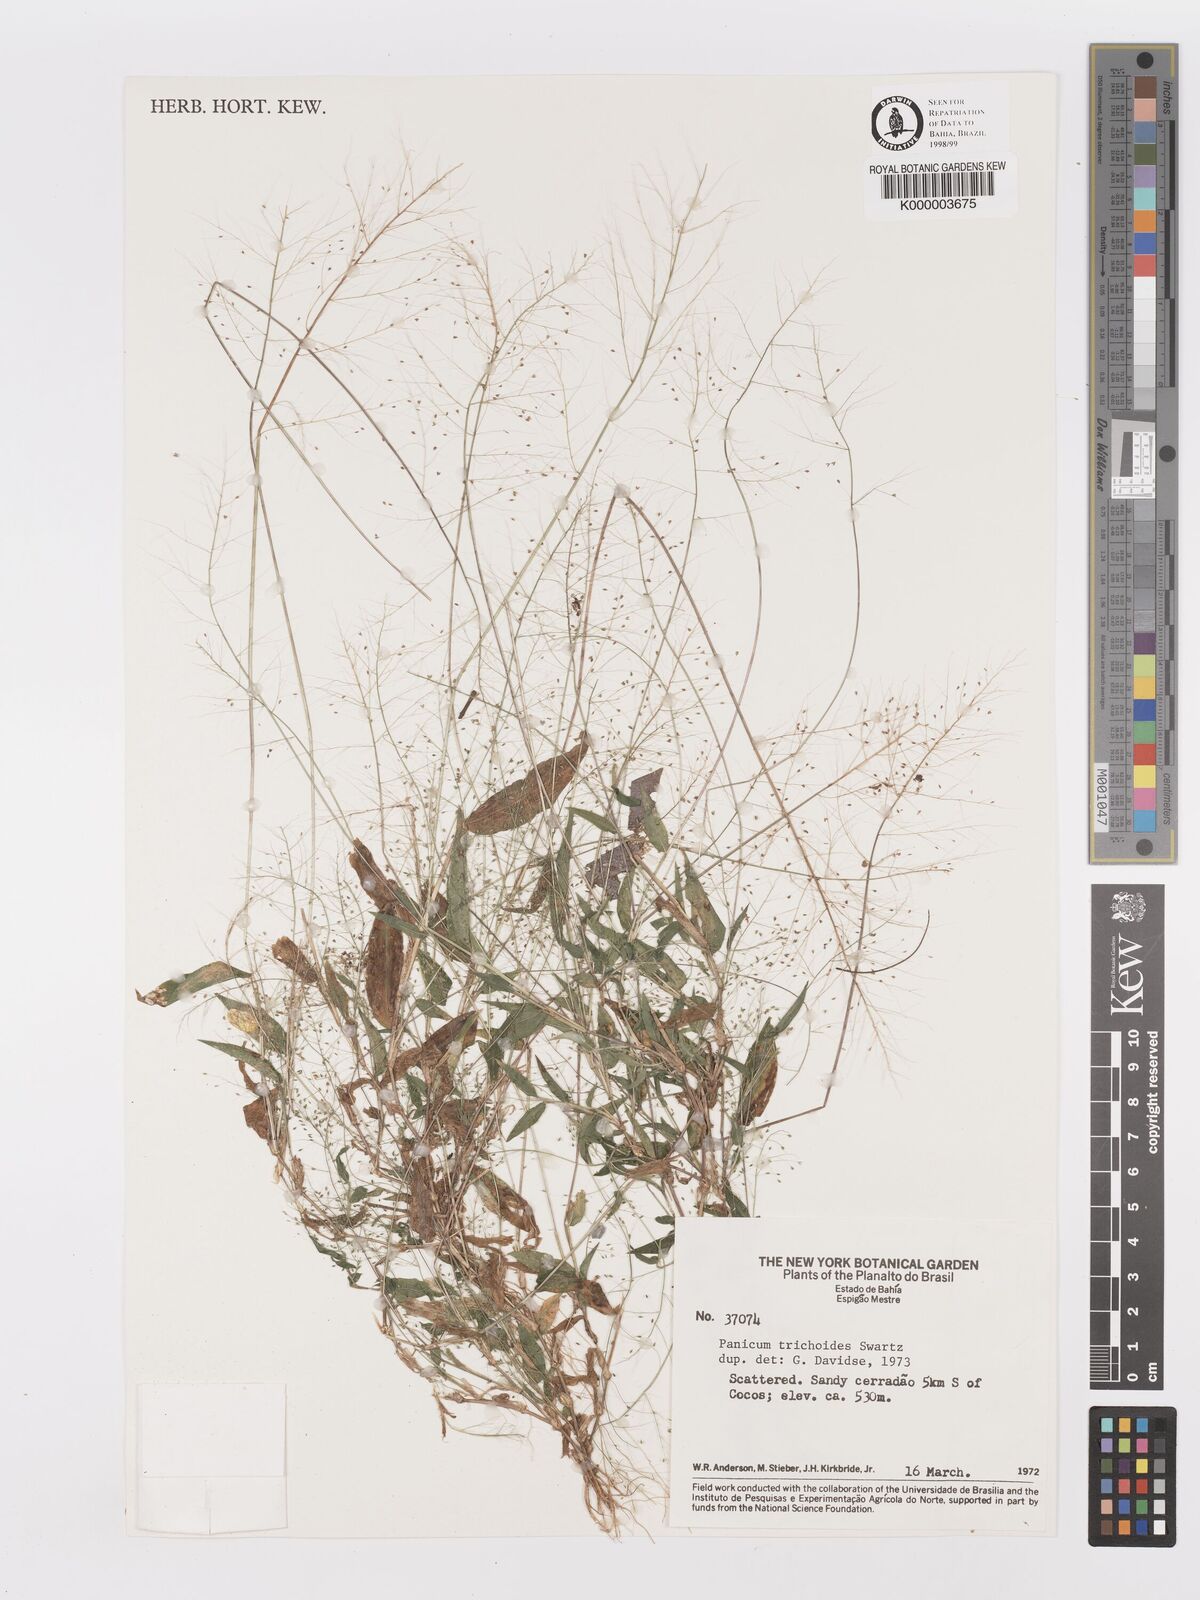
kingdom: Plantae
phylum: Tracheophyta
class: Liliopsida
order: Poales
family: Poaceae
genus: Panicum
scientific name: Panicum
